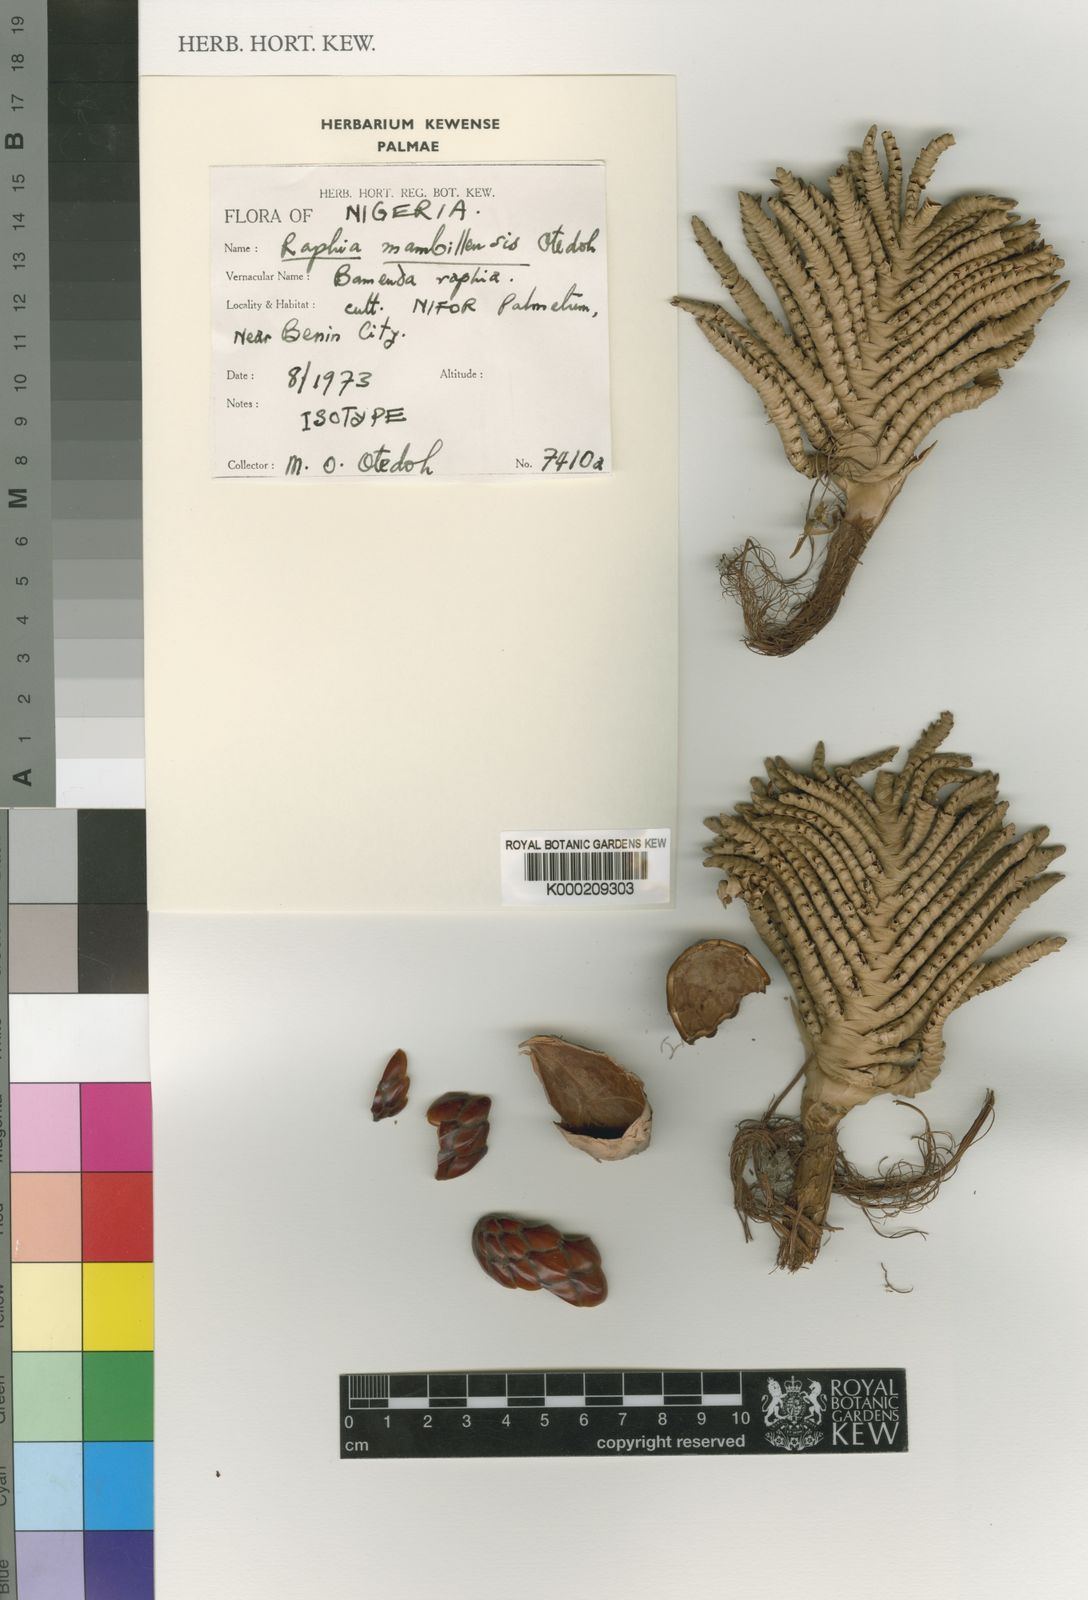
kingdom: Plantae
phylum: Tracheophyta
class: Liliopsida
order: Arecales
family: Arecaceae
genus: Raphia
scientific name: Raphia vinifera
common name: Raphia palm
